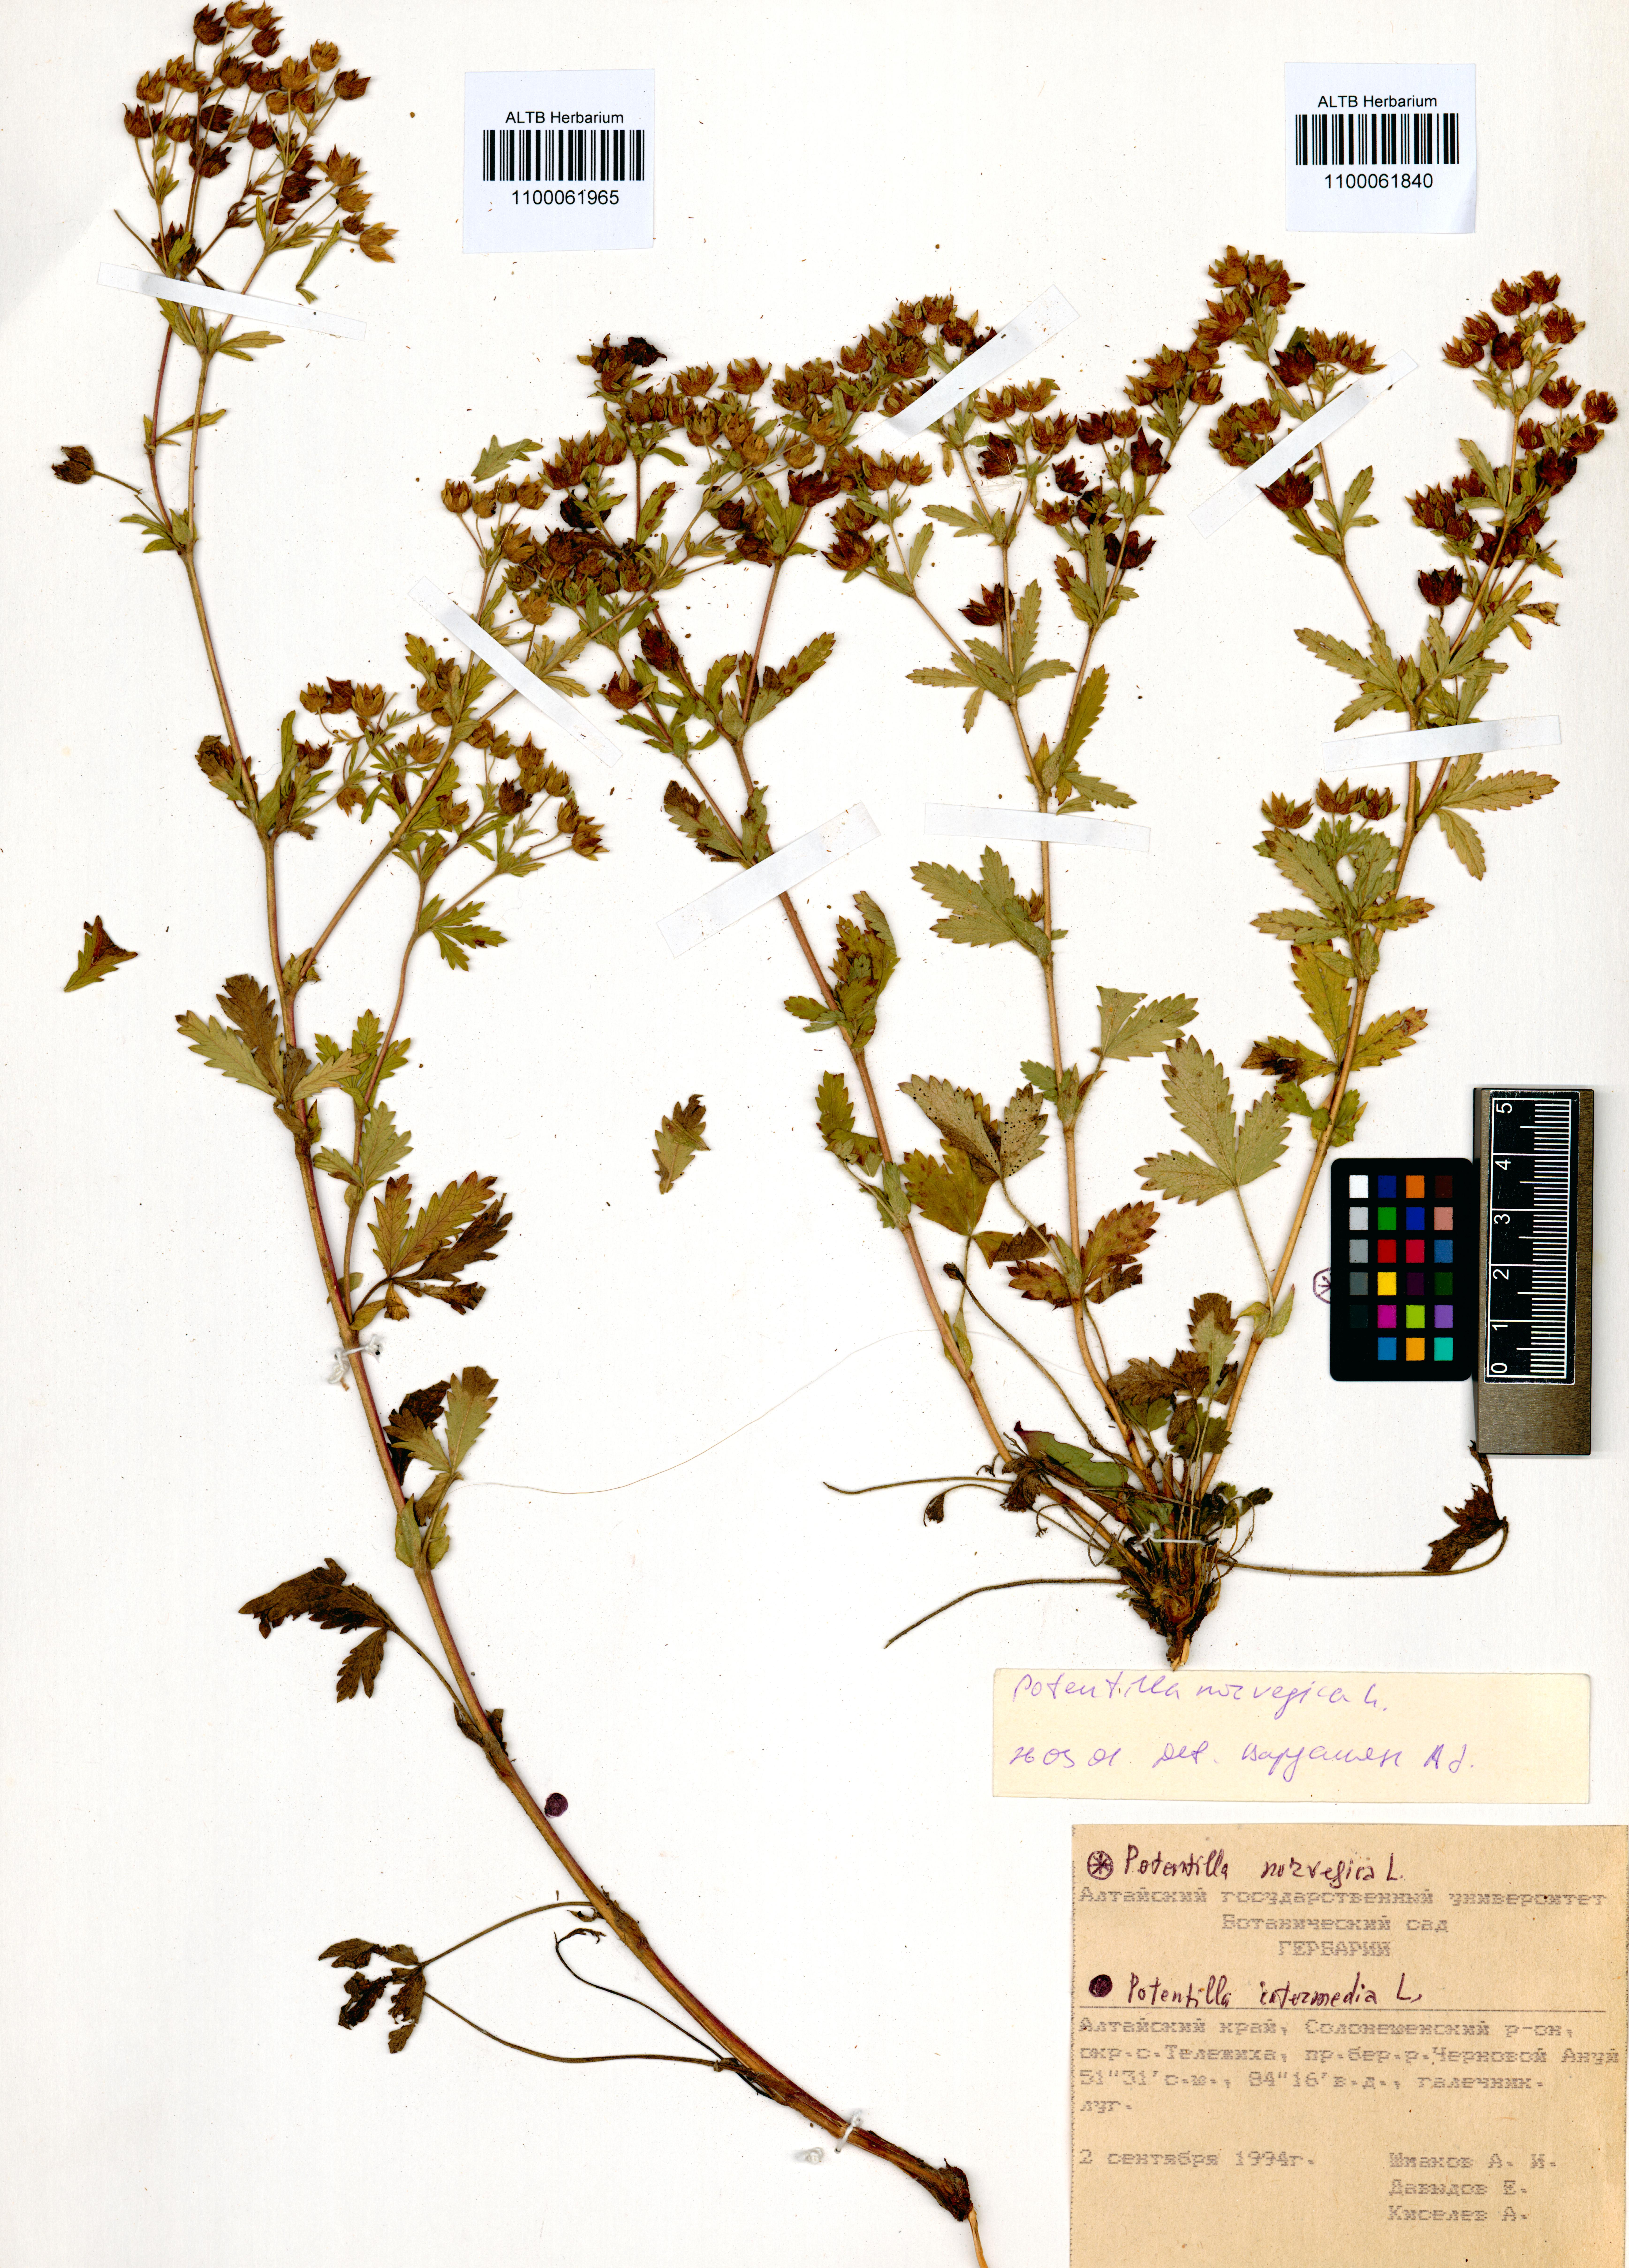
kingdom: Plantae
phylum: Tracheophyta
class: Magnoliopsida
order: Rosales
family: Rosaceae
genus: Potentilla
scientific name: Potentilla norvegica
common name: Ternate-leaved cinquefoil
